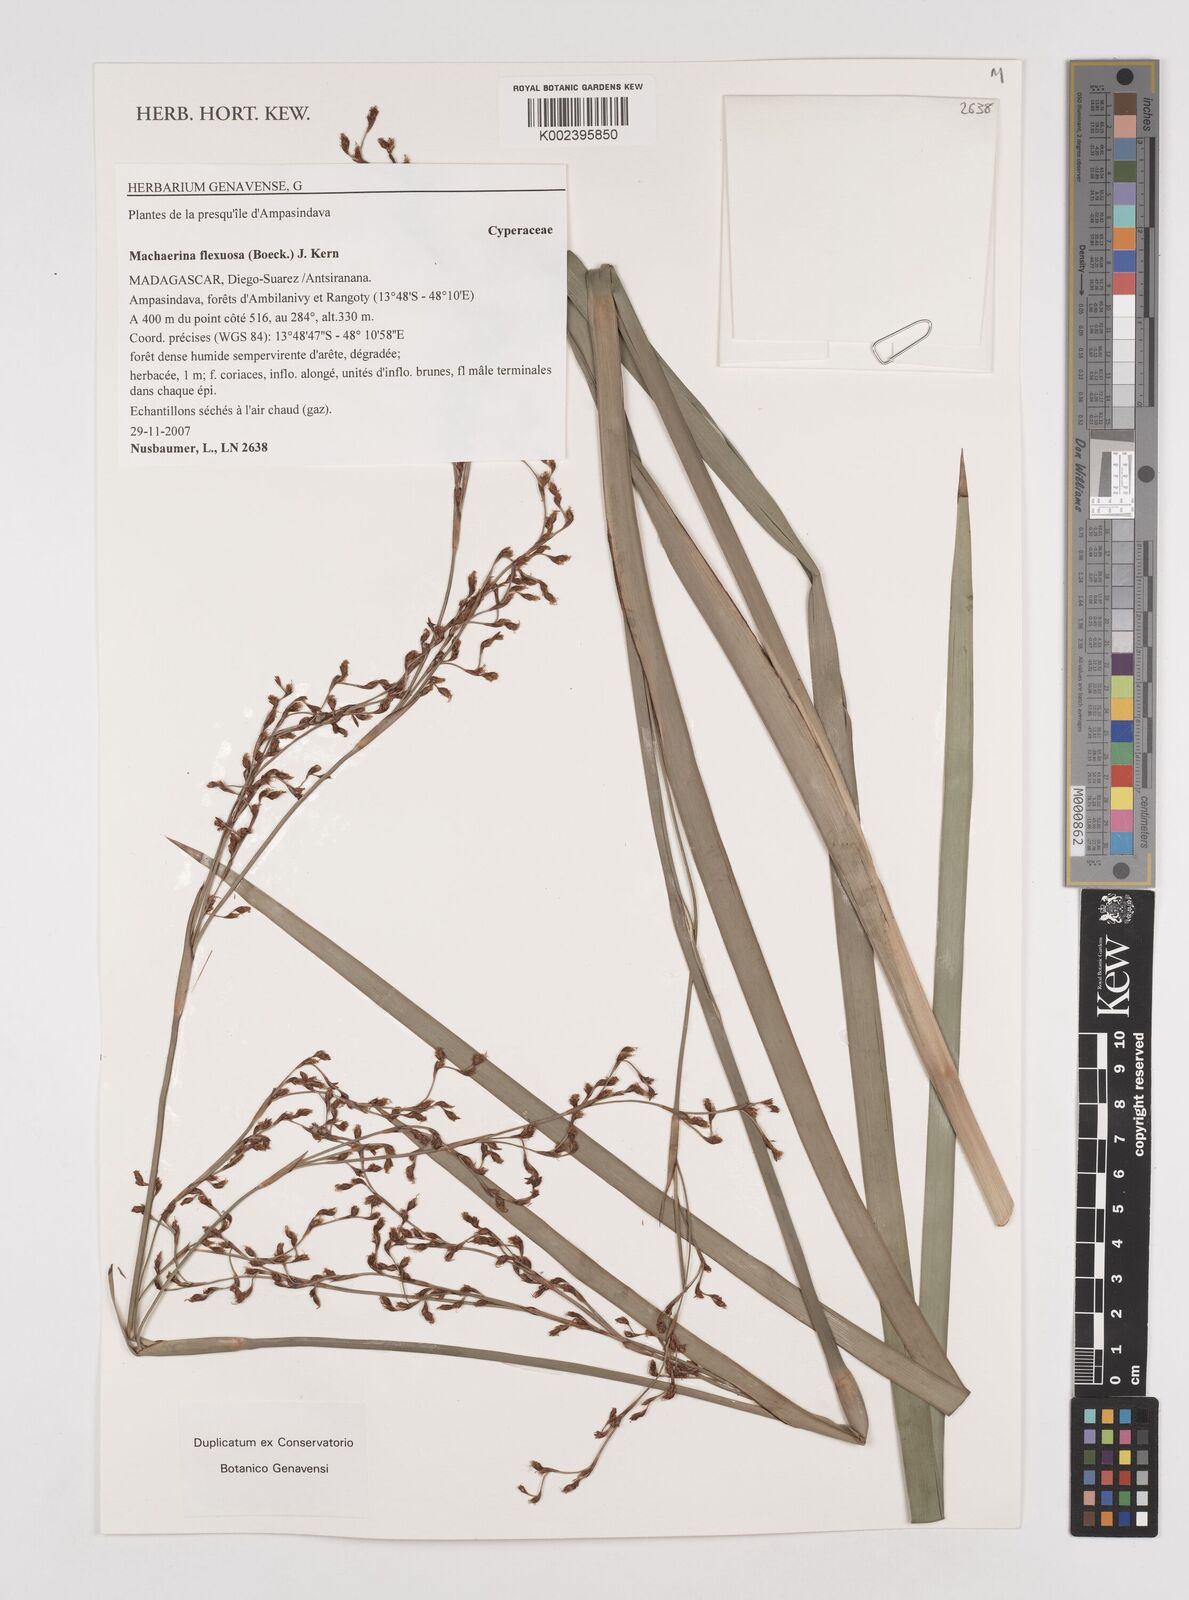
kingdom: Plantae
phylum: Tracheophyta
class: Liliopsida
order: Poales
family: Cyperaceae
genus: Machaerina
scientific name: Machaerina flexuosa
